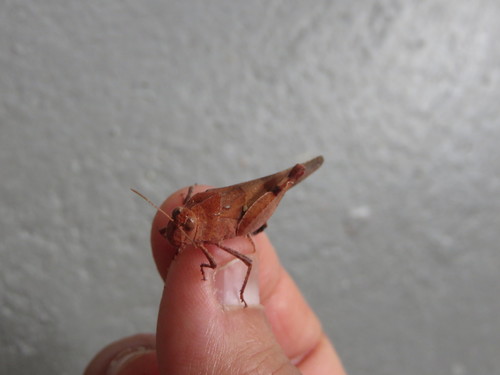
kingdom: Animalia
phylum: Arthropoda
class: Insecta
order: Orthoptera
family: Acrididae
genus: Oedipoda
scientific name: Oedipoda caerulescens
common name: Blue-winged grasshopper
